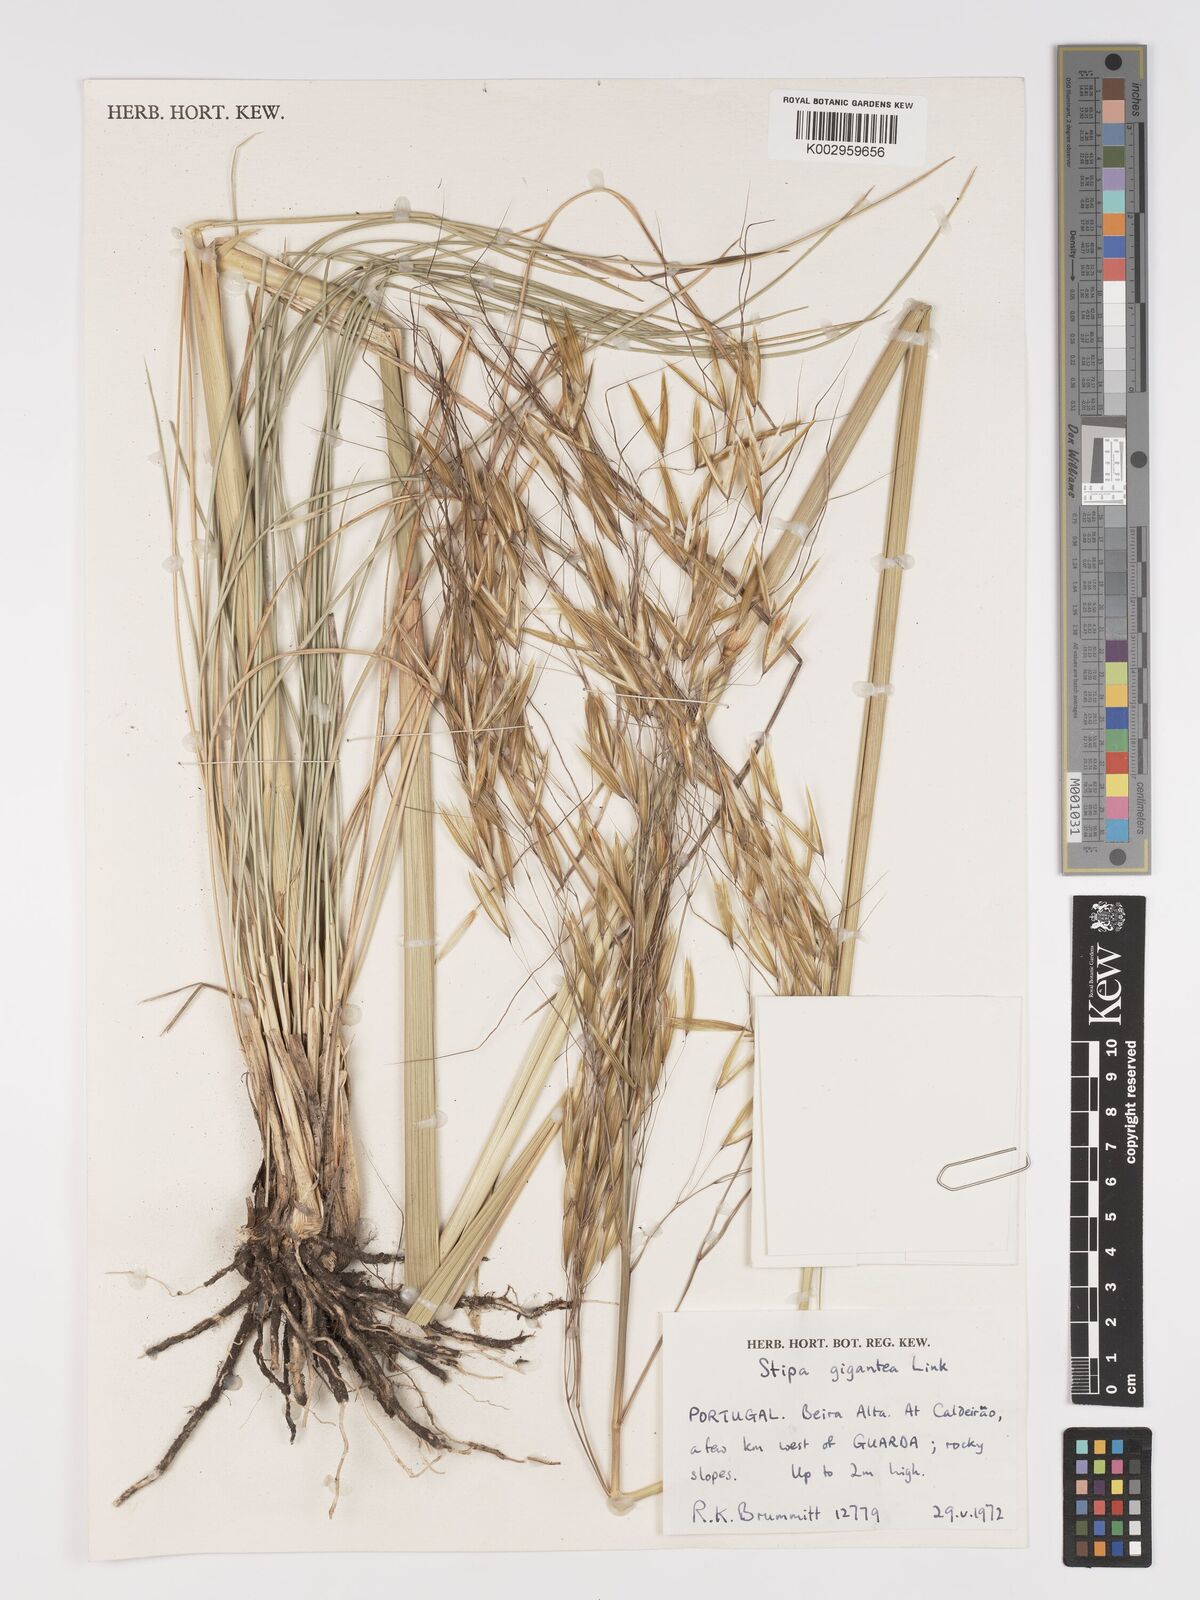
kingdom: Plantae
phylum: Tracheophyta
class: Liliopsida
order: Poales
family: Poaceae
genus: Celtica
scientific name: Celtica gigantea
